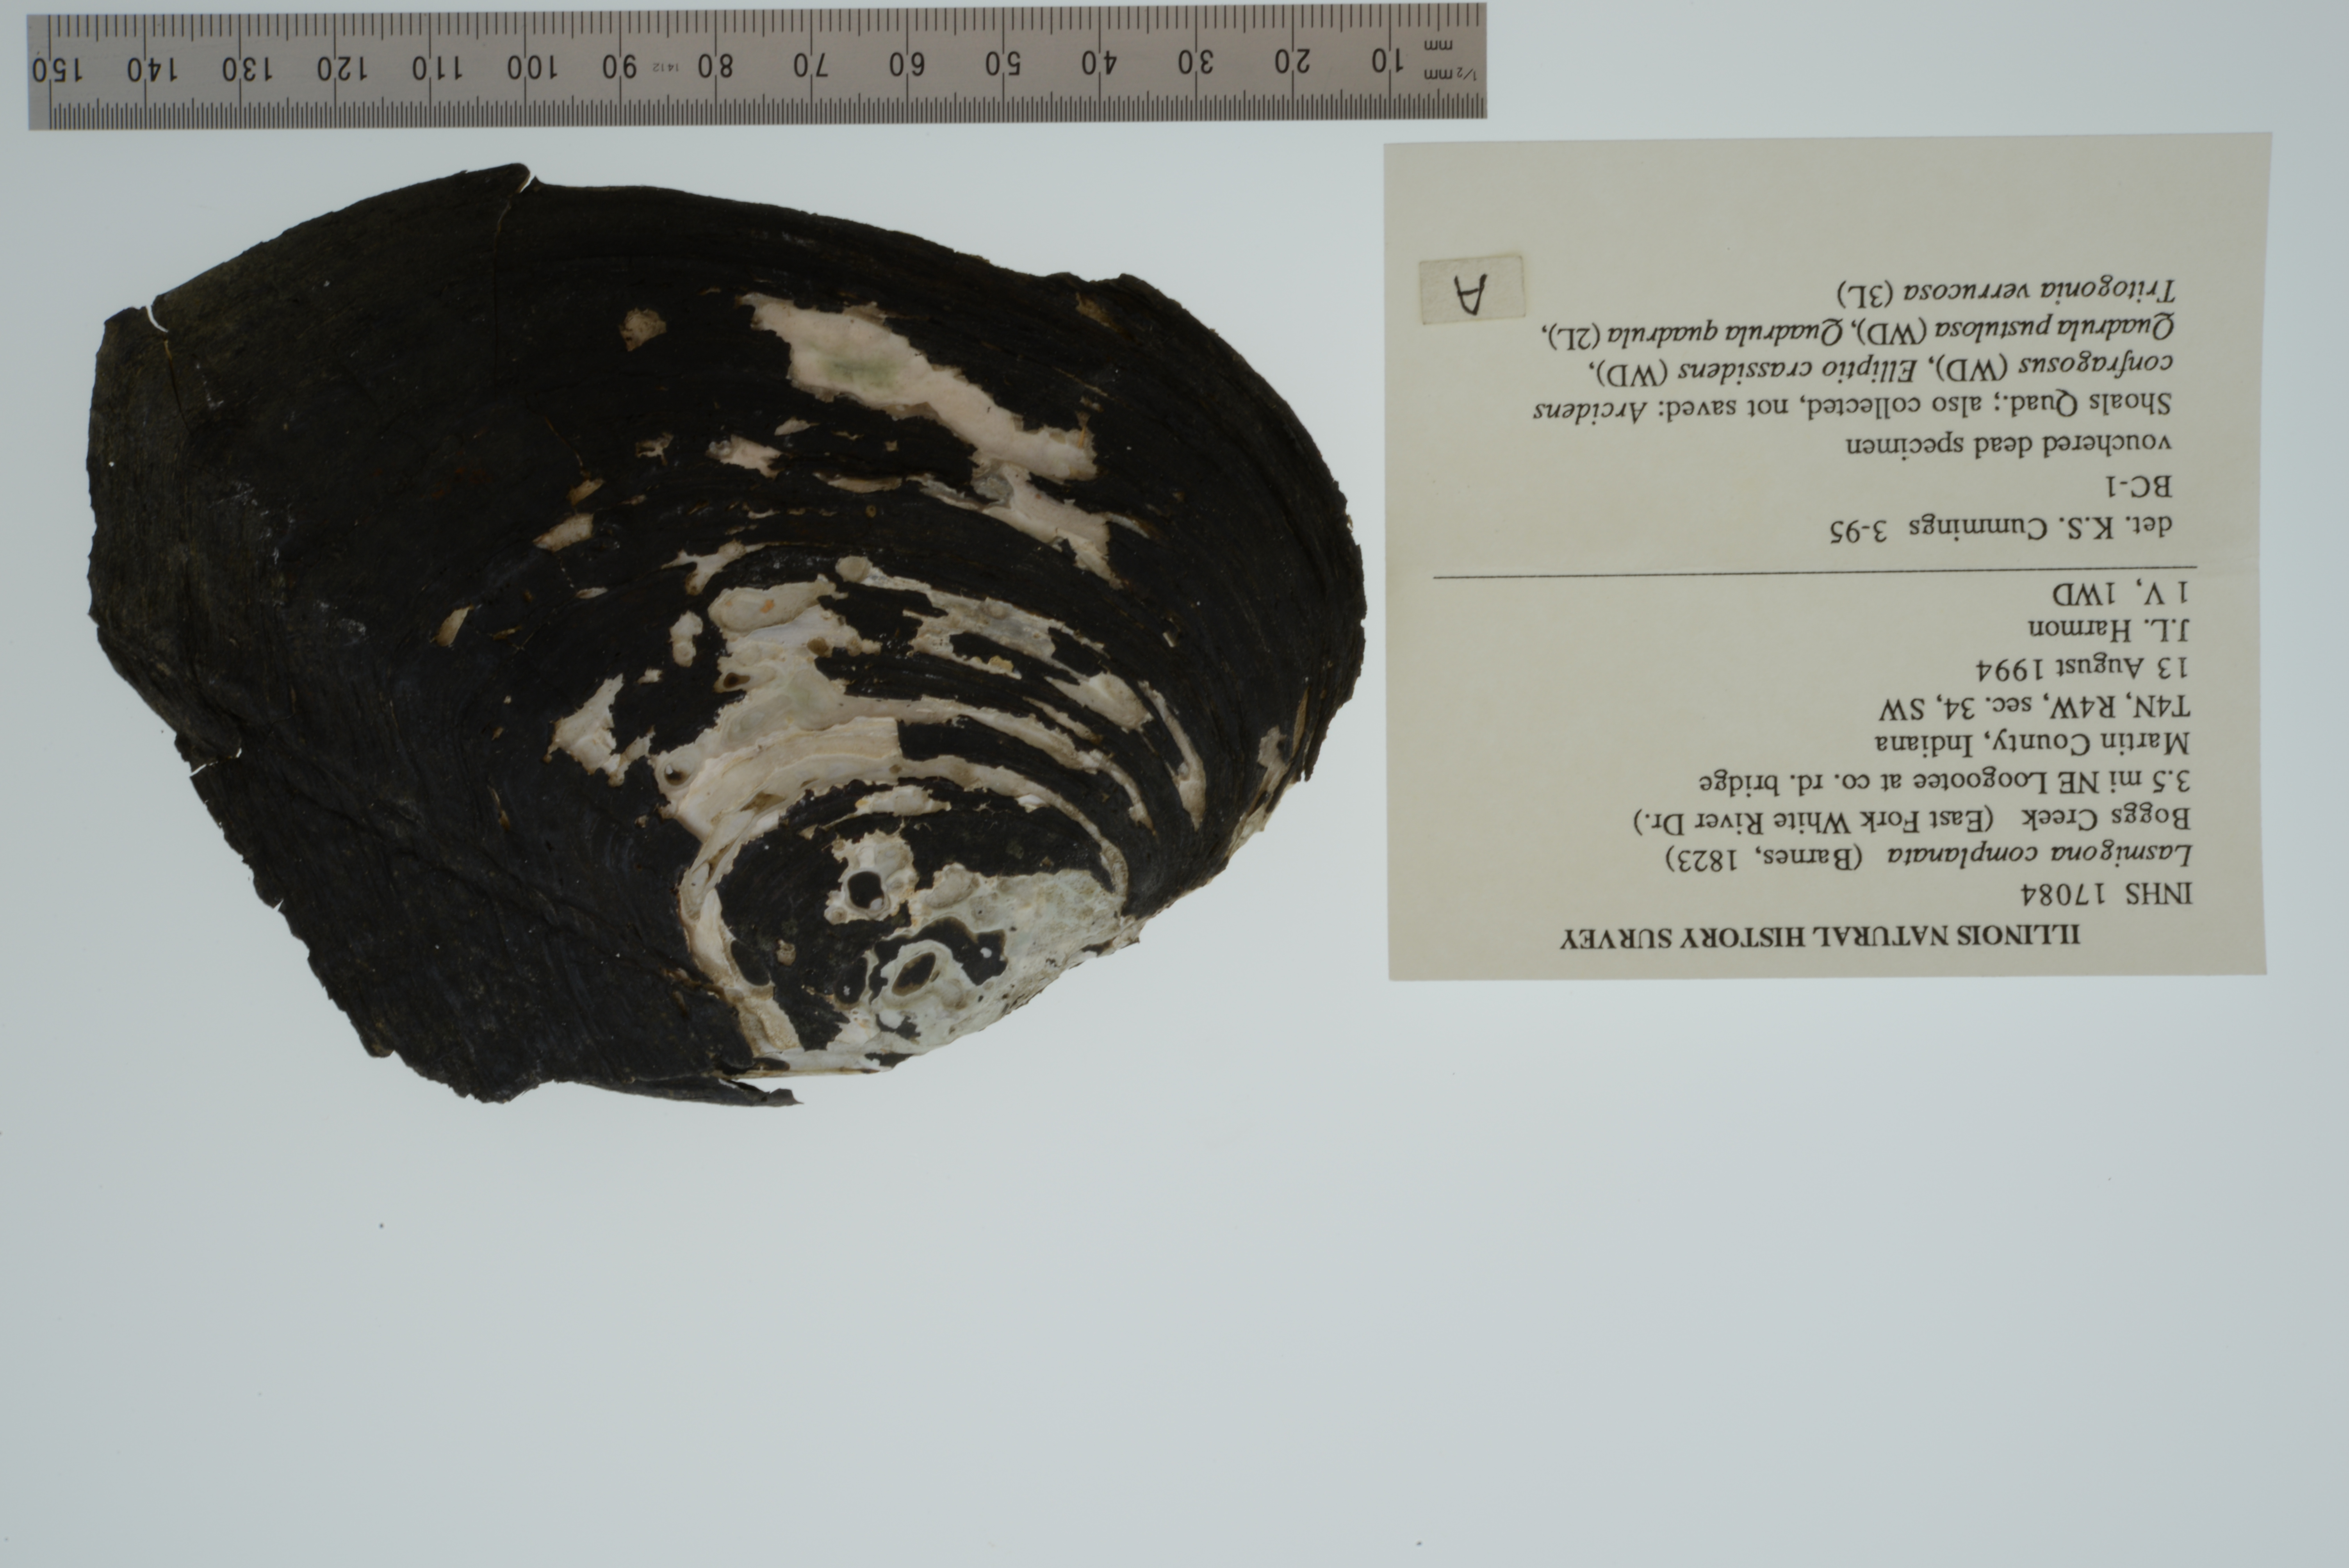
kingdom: Animalia
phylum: Mollusca
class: Bivalvia
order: Unionida
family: Unionidae
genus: Lasmigona
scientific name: Lasmigona complanata
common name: White heelsplitter
